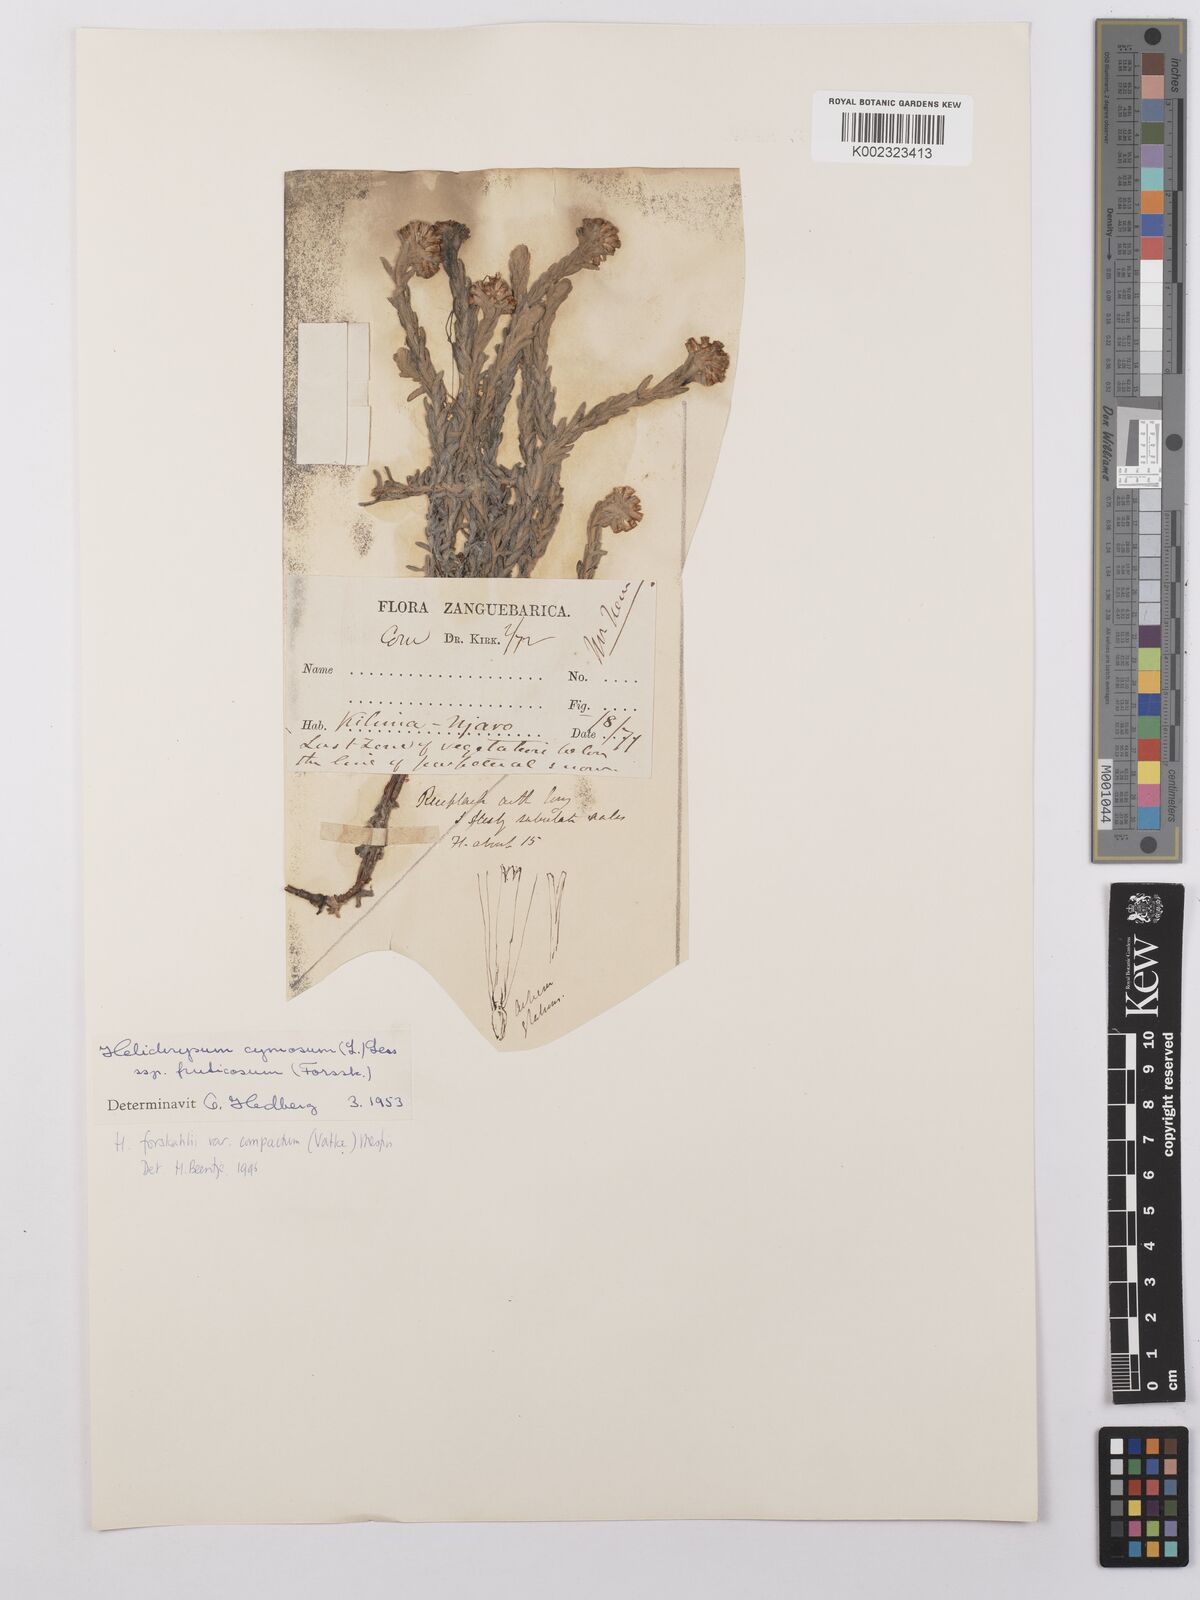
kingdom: Plantae
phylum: Tracheophyta
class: Magnoliopsida
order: Asterales
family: Asteraceae
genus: Helichrysum
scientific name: Helichrysum forskahlii
